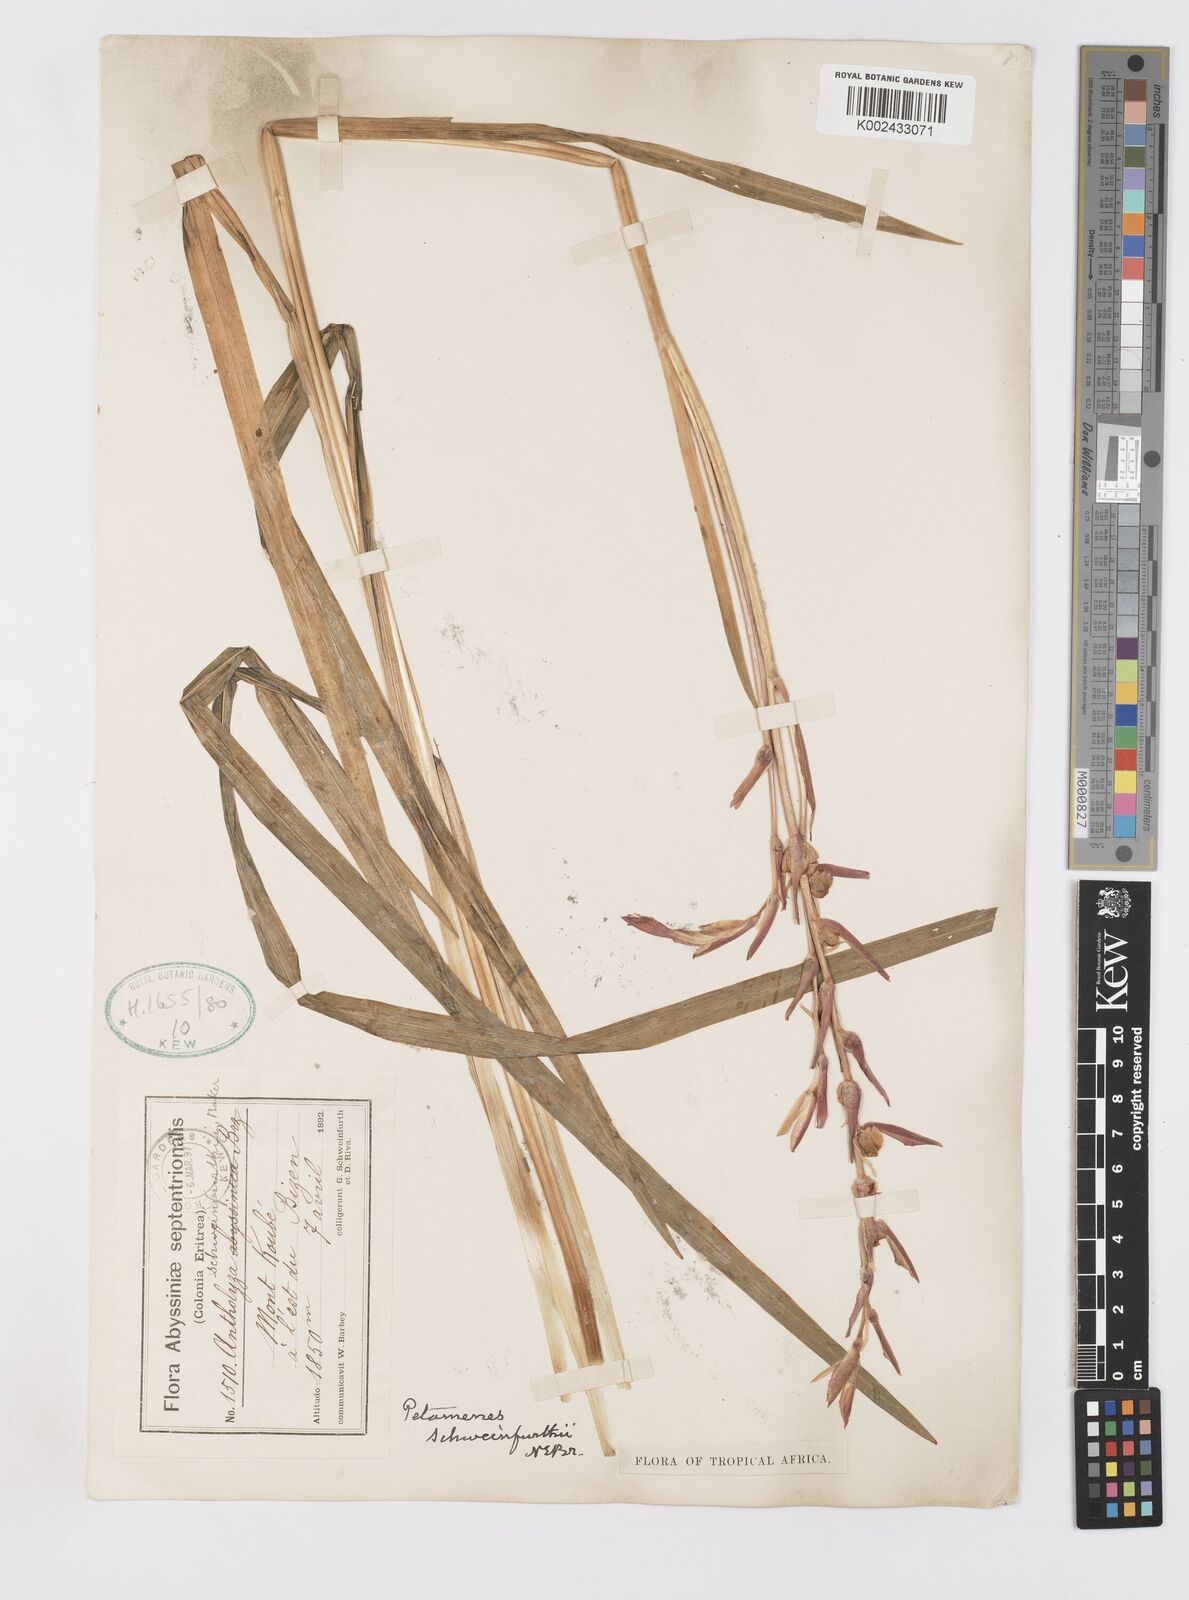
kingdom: Plantae
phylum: Tracheophyta
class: Liliopsida
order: Asparagales
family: Iridaceae
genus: Gladiolus
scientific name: Gladiolus schweinfurthii
